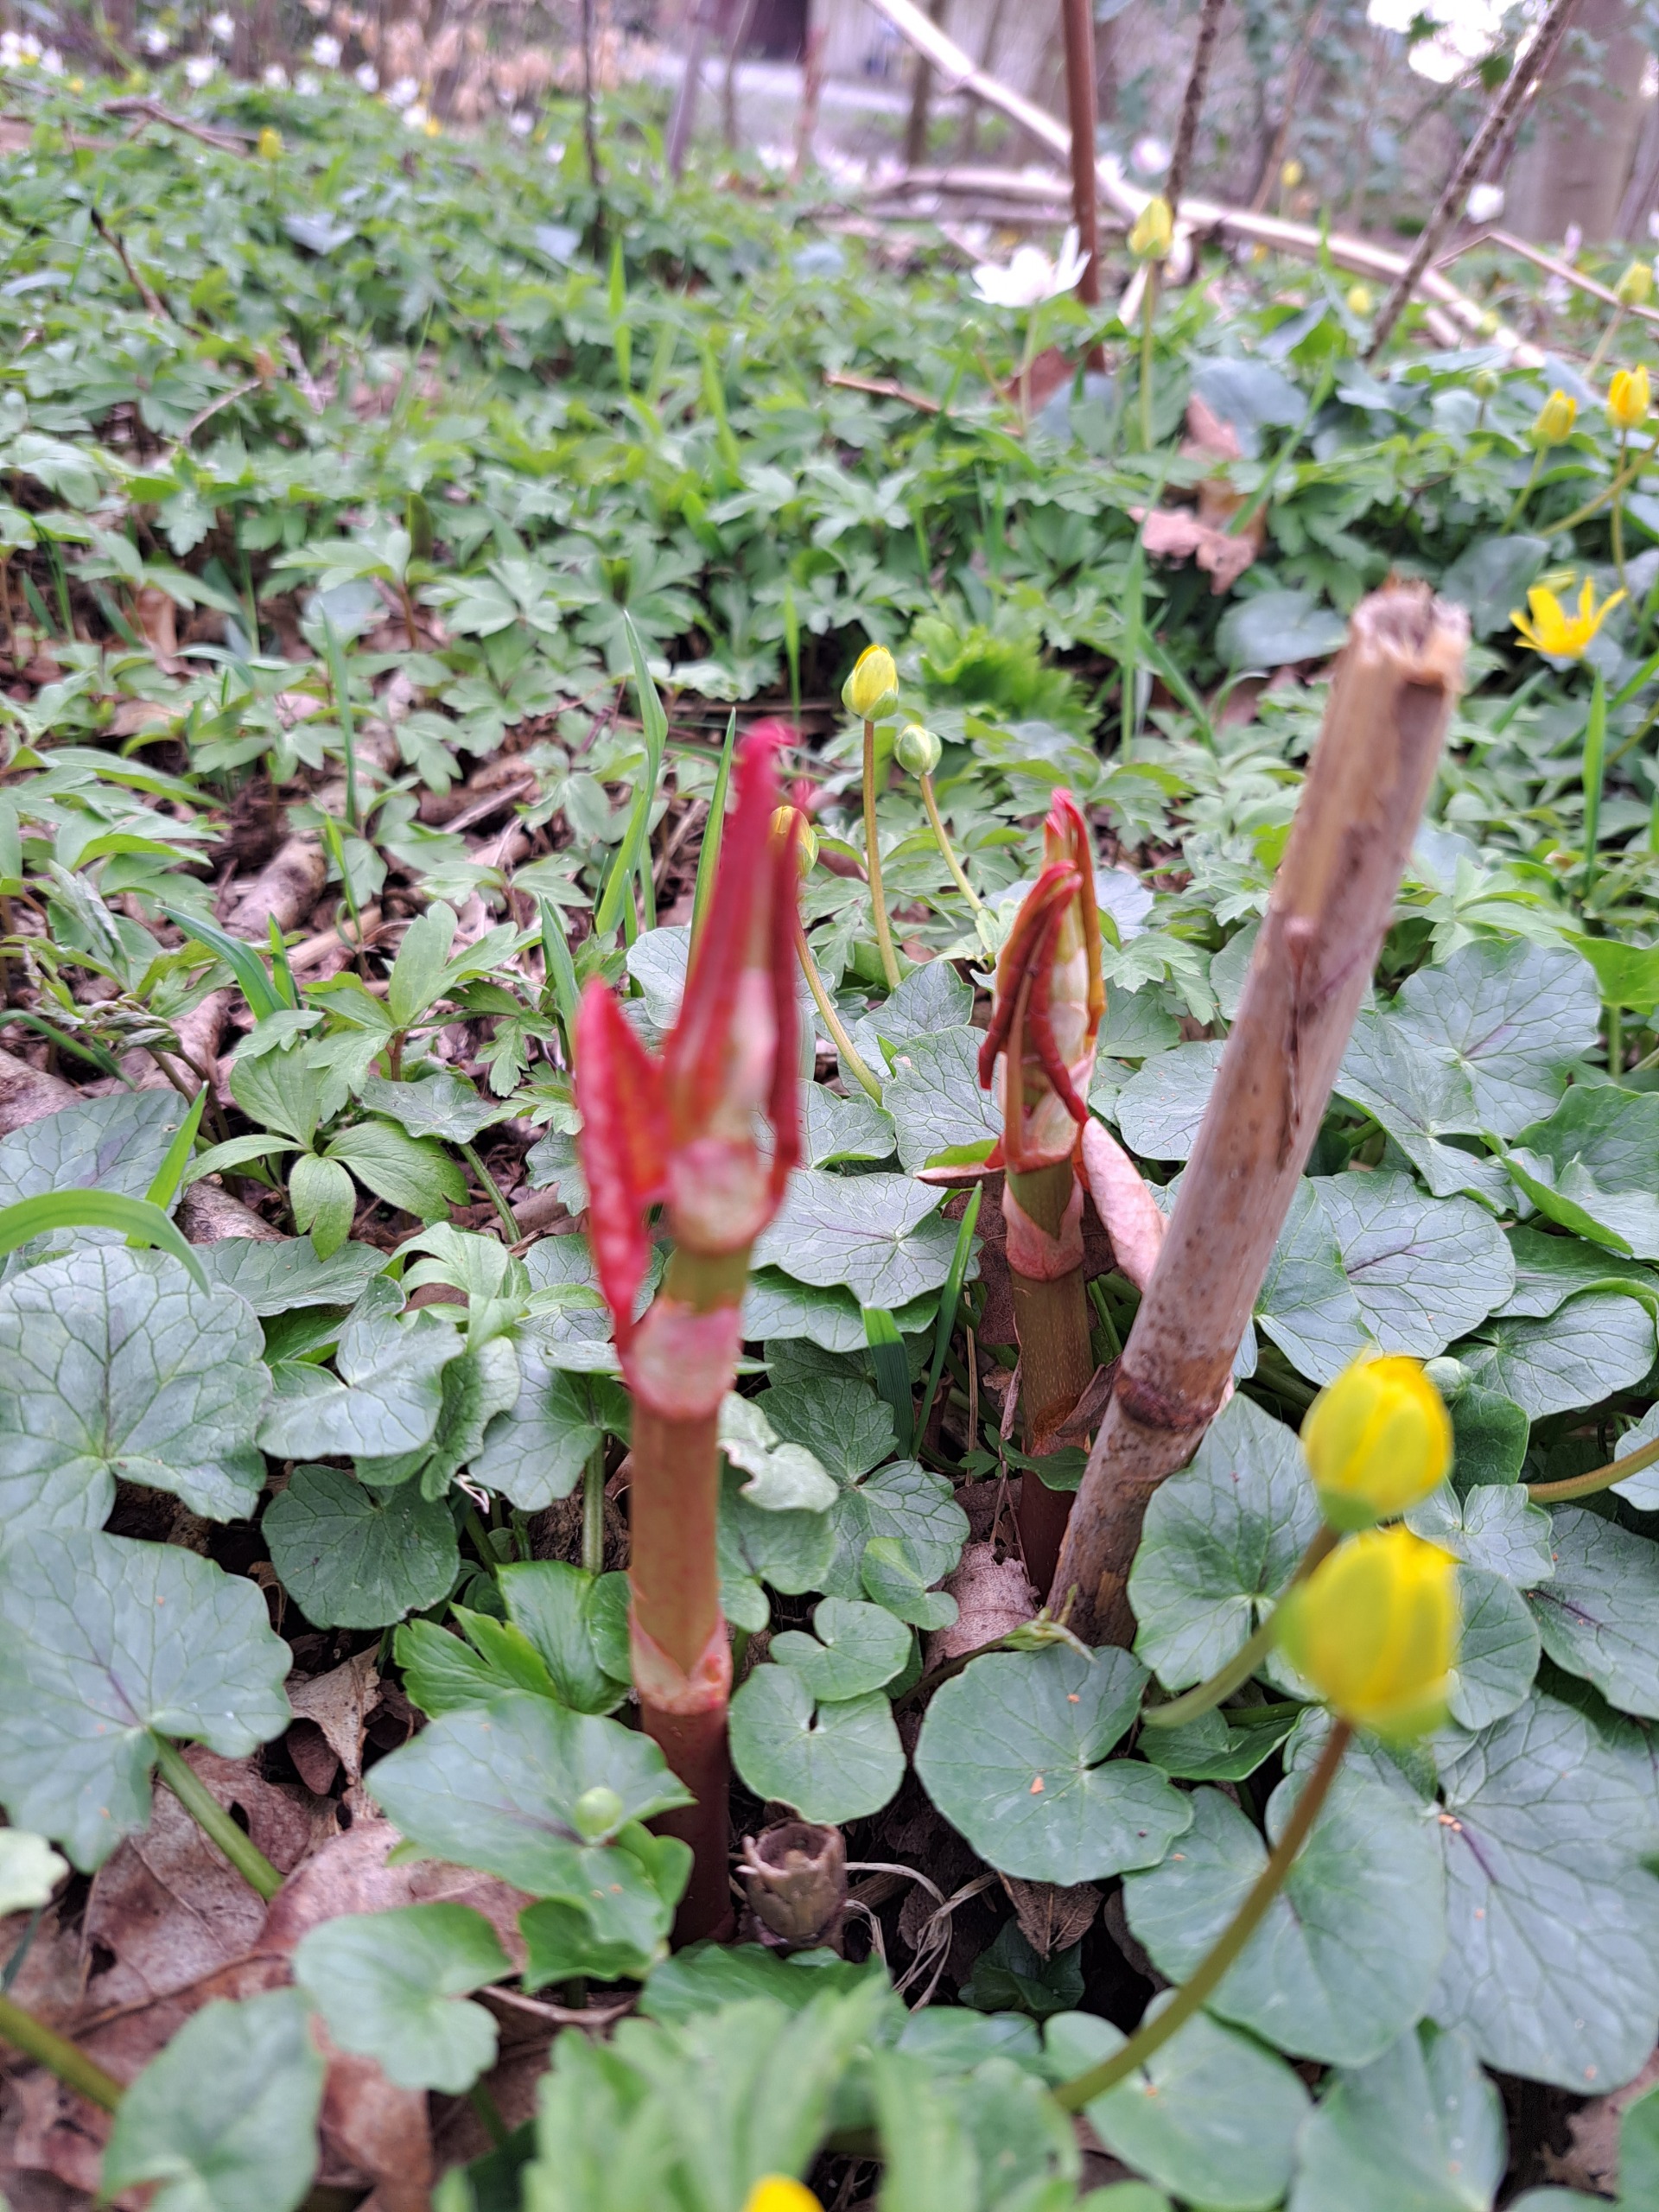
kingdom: Plantae
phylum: Tracheophyta
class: Magnoliopsida
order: Caryophyllales
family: Polygonaceae
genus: Reynoutria
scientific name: Reynoutria japonica
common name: Japan-pileurt
